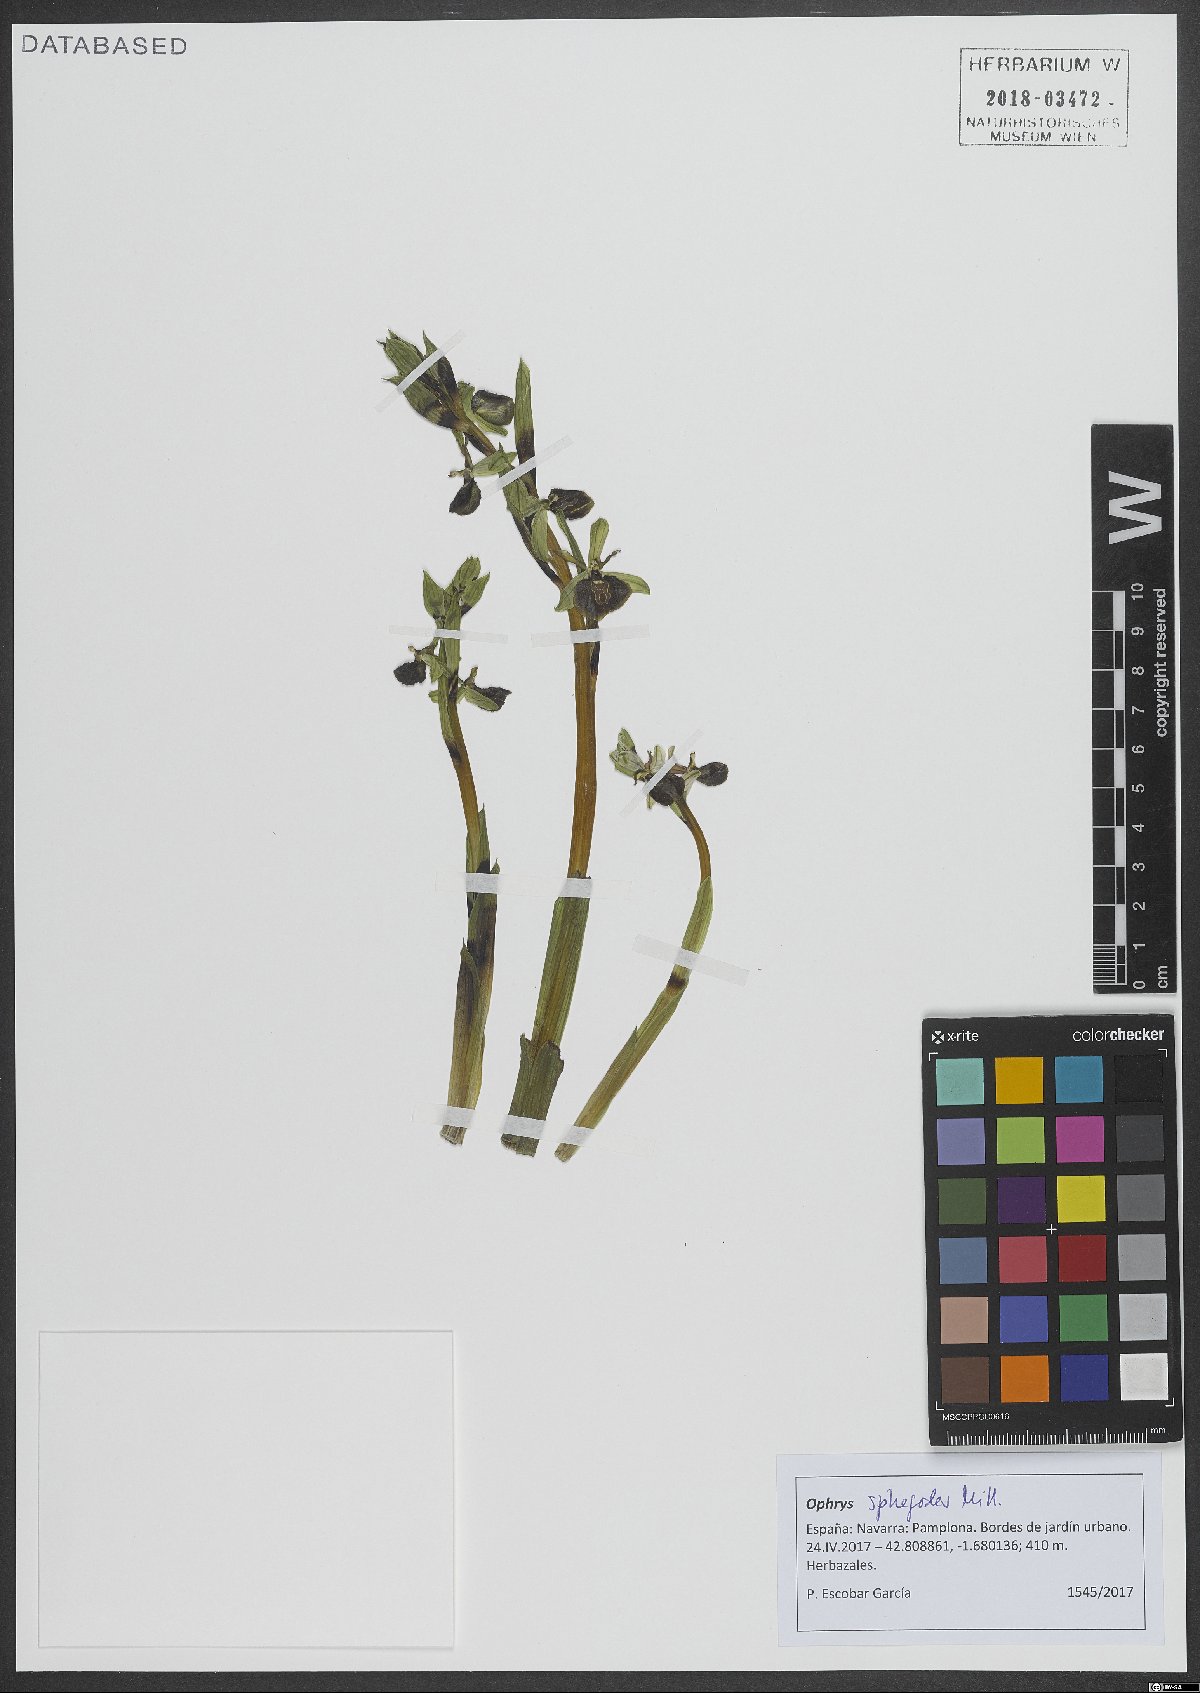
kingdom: Plantae
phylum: Tracheophyta
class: Liliopsida
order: Asparagales
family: Orchidaceae
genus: Ophrys
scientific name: Ophrys sphegodes
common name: Early spider-orchid
